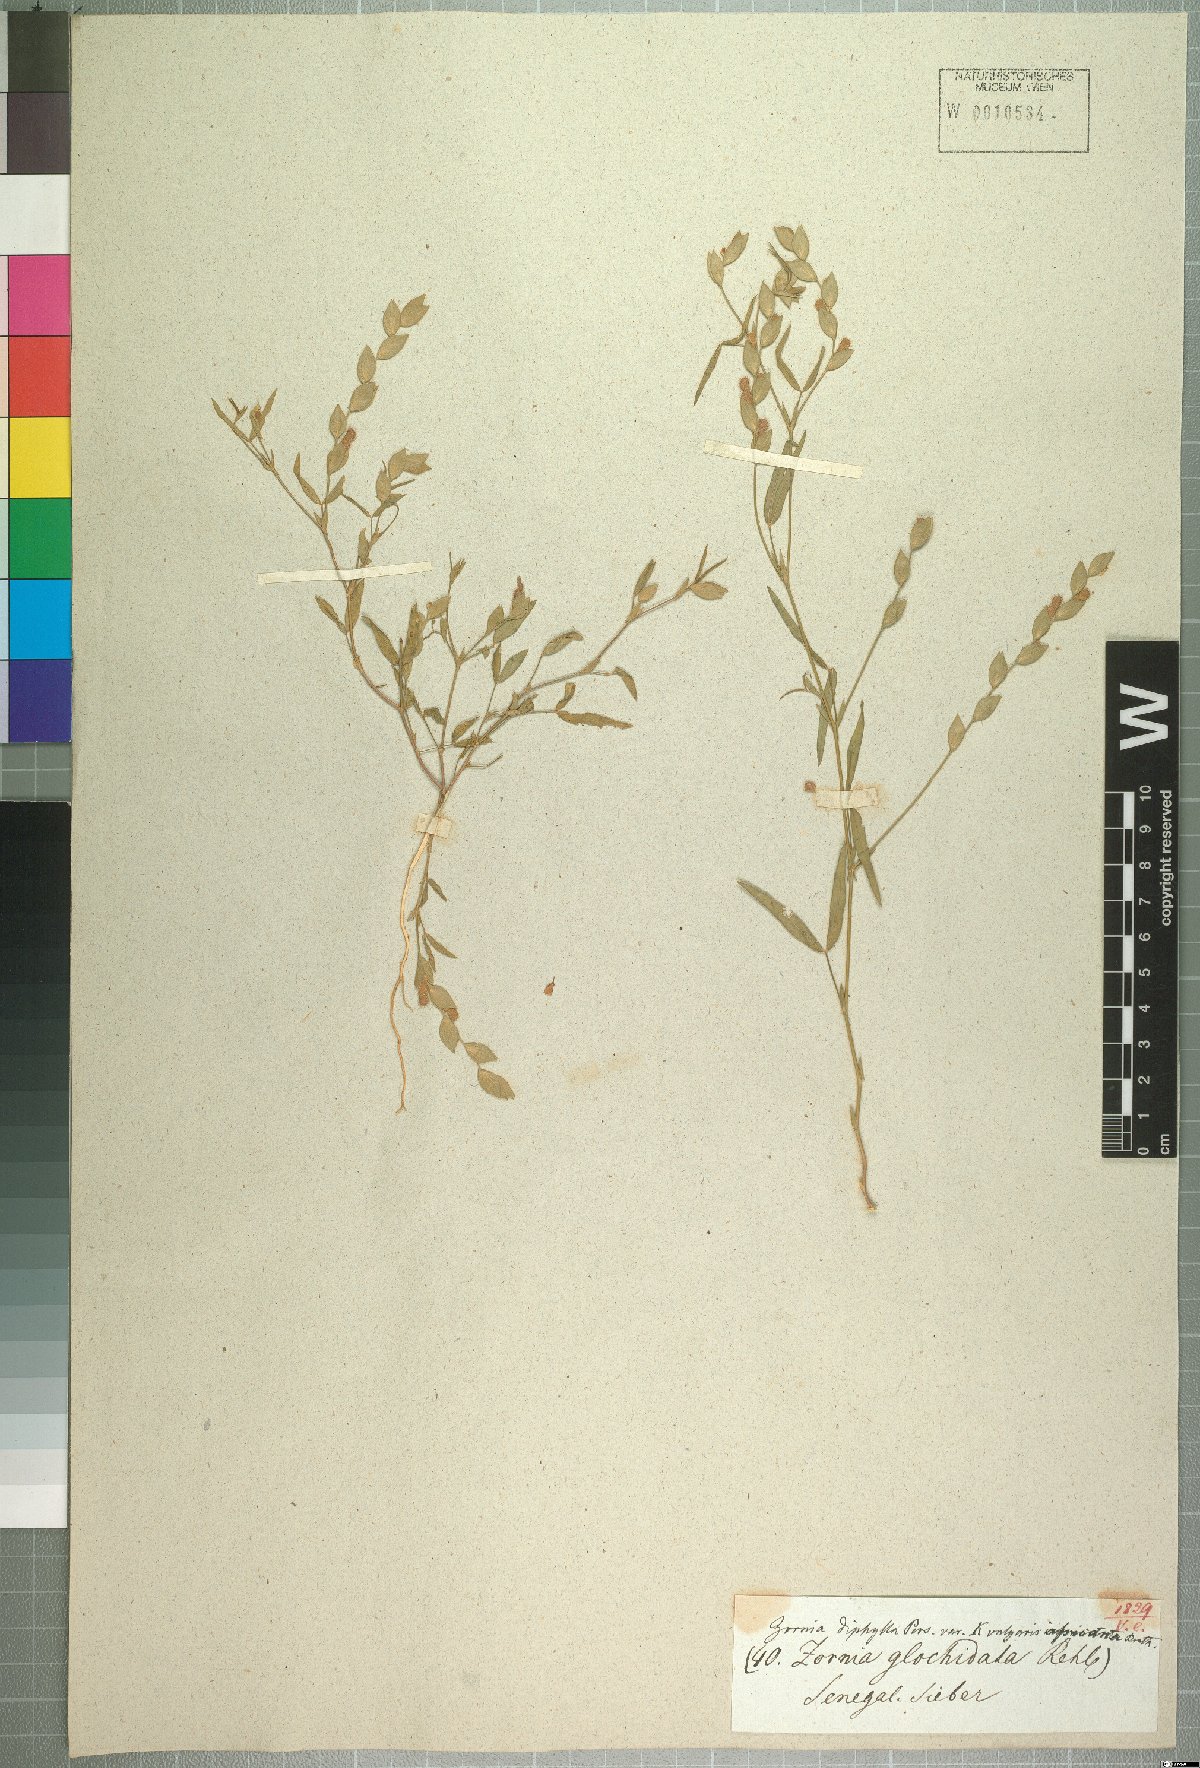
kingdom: Plantae
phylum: Tracheophyta
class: Magnoliopsida
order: Fabales
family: Fabaceae
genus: Zornia
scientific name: Zornia glochidiata
